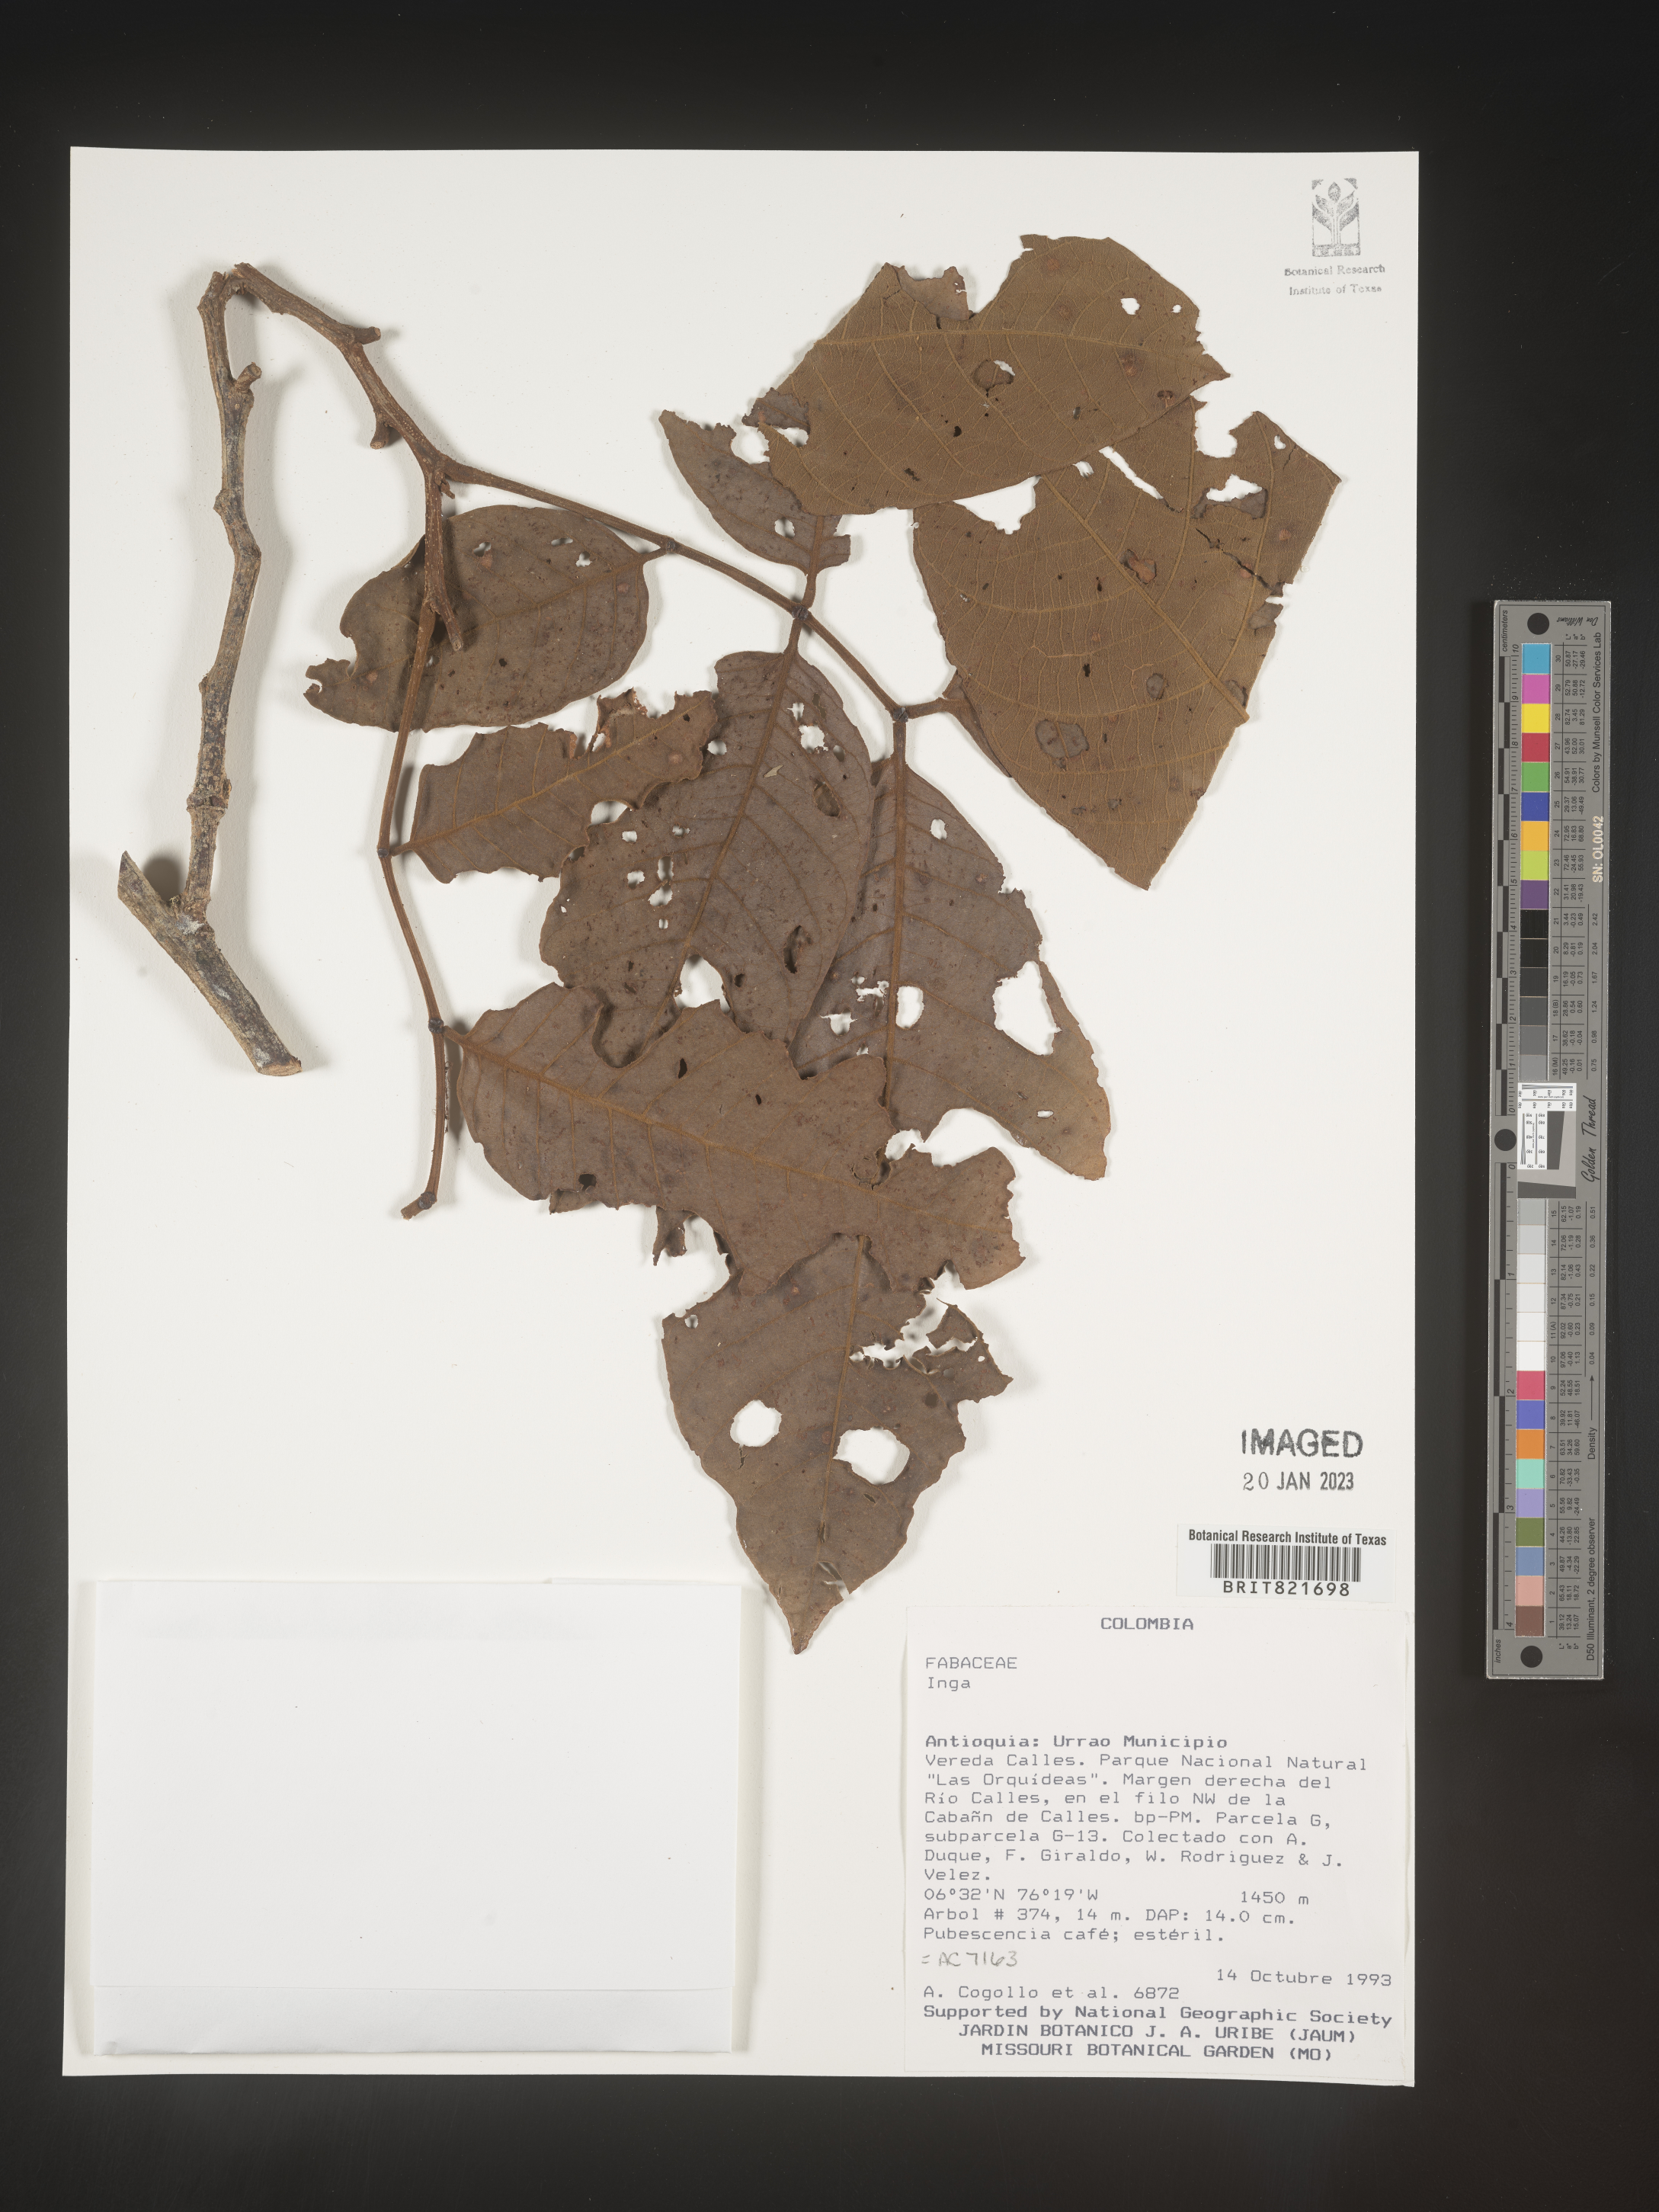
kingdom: Plantae
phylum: Tracheophyta
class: Magnoliopsida
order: Fabales
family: Fabaceae
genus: Inga
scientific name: Inga
